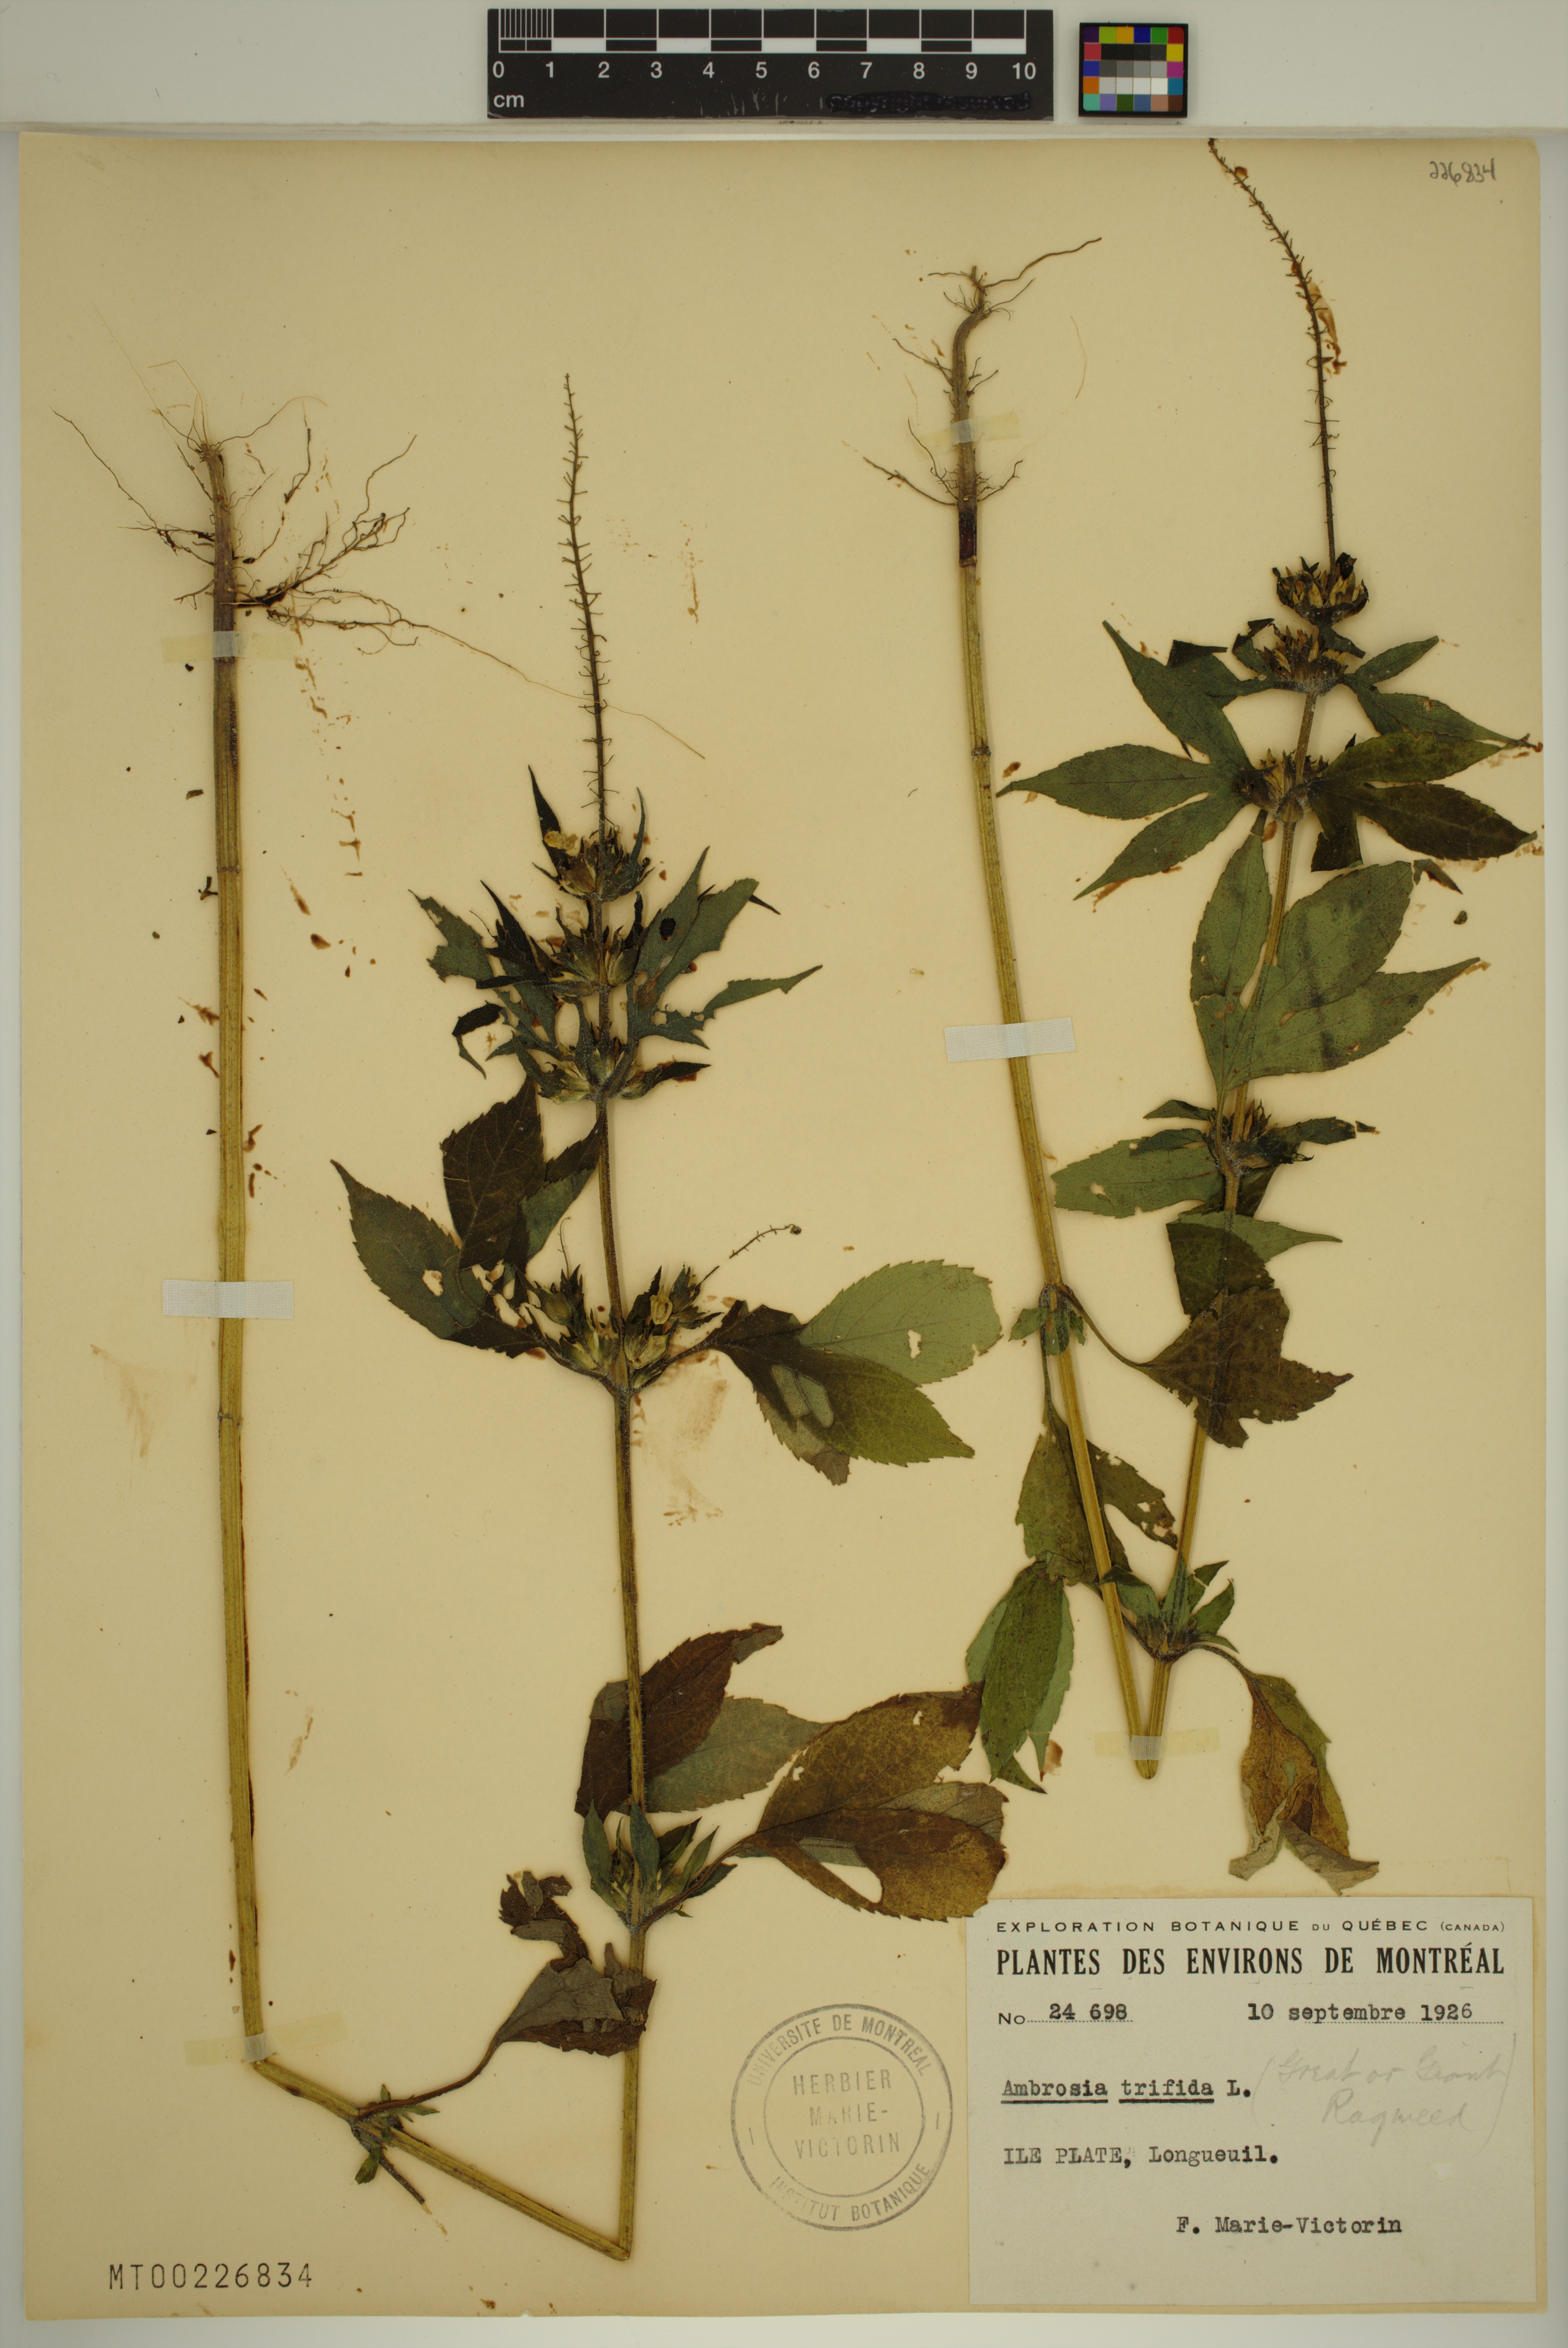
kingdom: Plantae
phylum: Tracheophyta
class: Magnoliopsida
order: Asterales
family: Asteraceae
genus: Ambrosia
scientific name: Ambrosia trifida
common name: Giant ragweed
